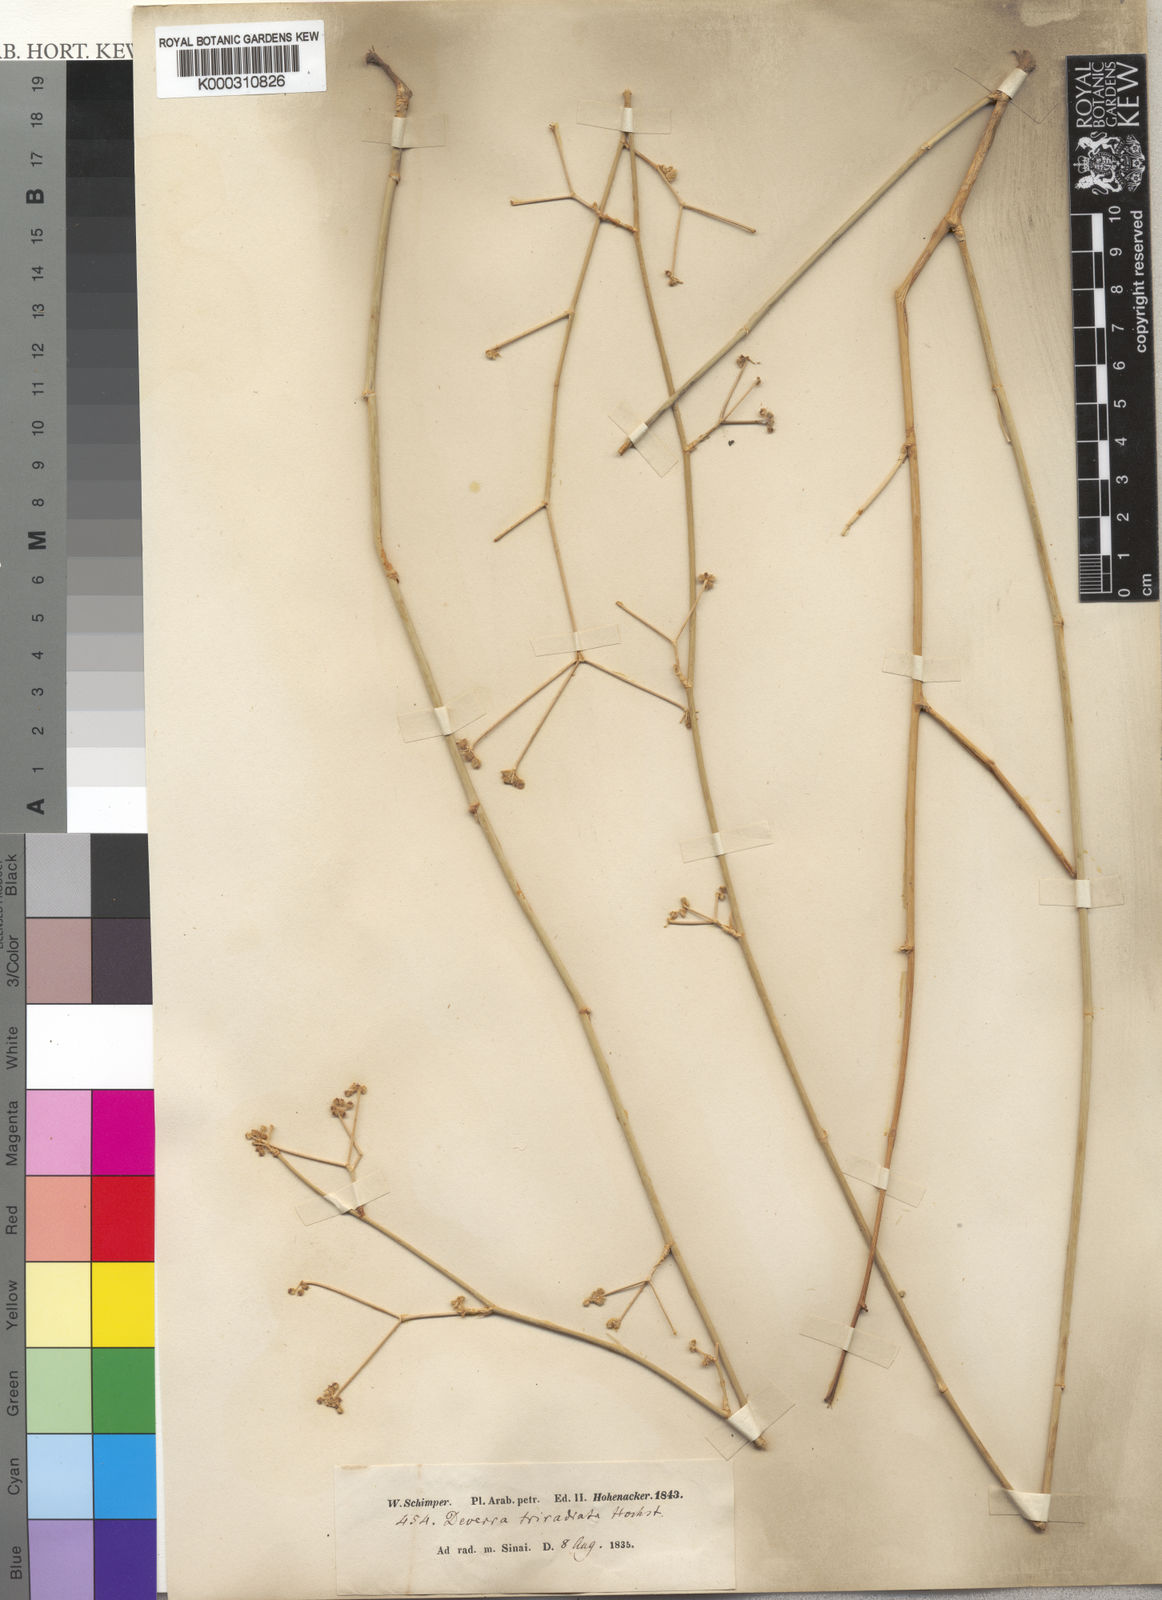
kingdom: Plantae
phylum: Tracheophyta
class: Magnoliopsida
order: Apiales
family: Apiaceae
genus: Deverra
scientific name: Deverra triradiata
